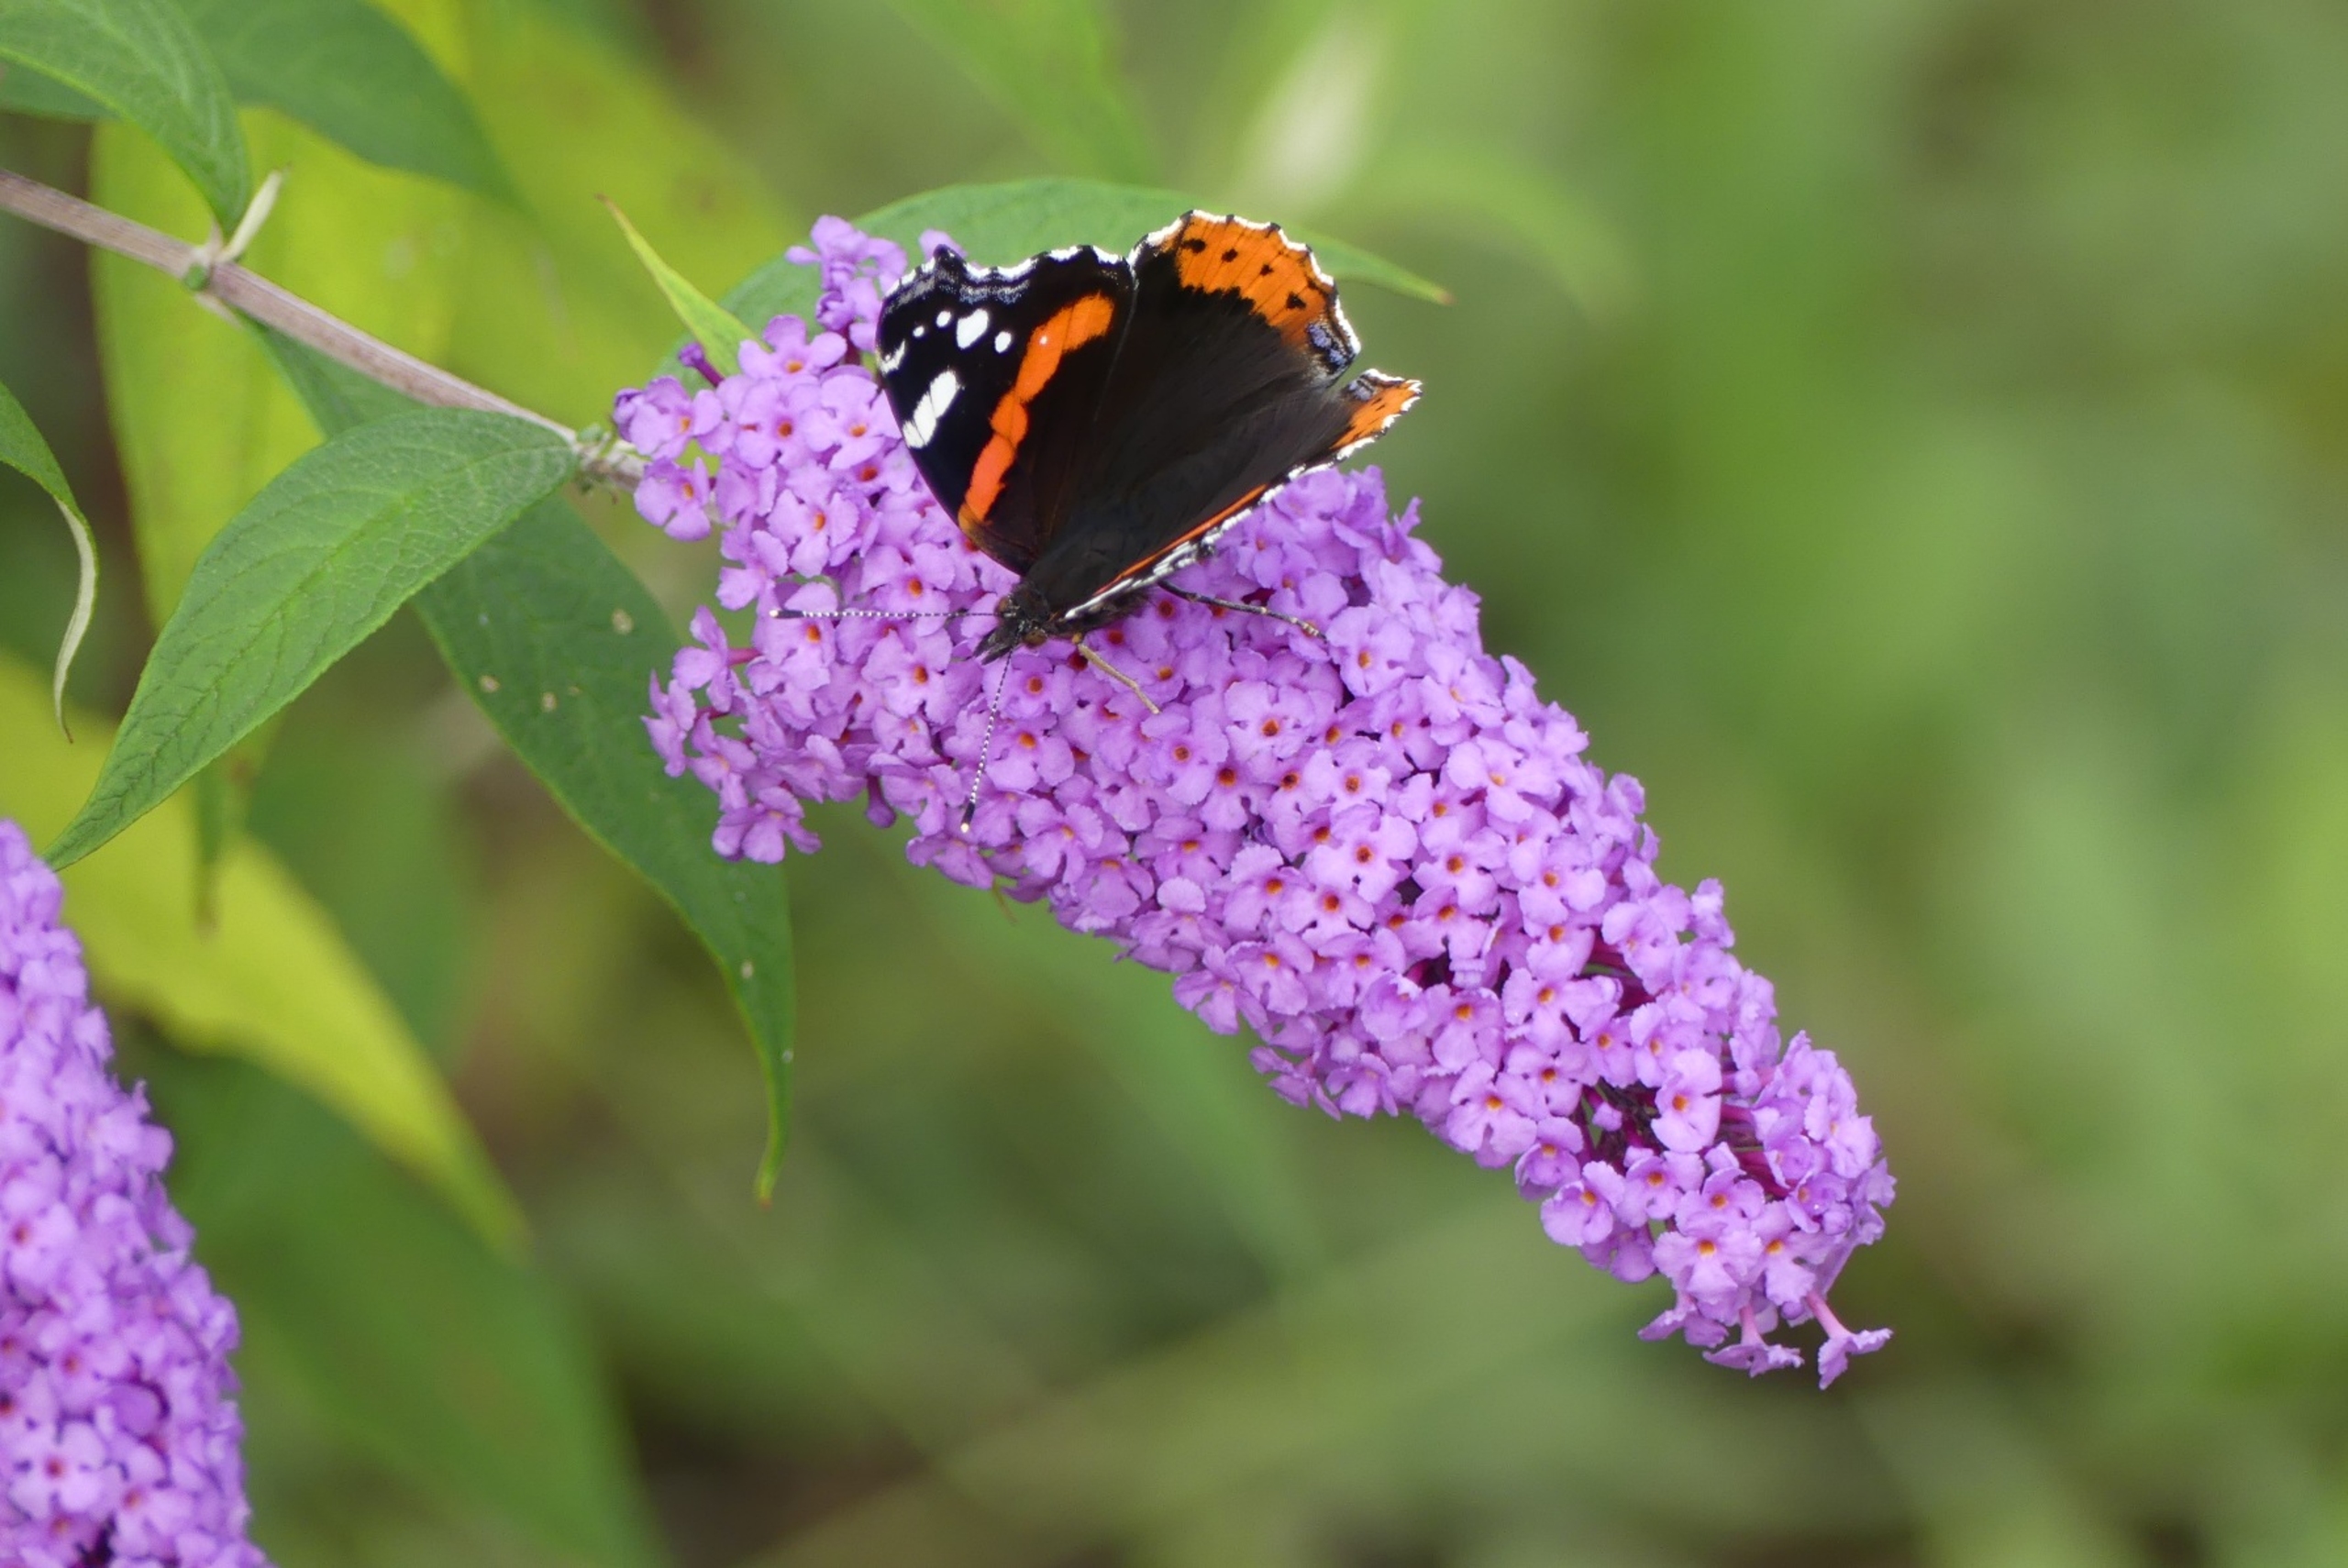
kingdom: Animalia
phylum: Arthropoda
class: Insecta
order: Lepidoptera
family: Nymphalidae
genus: Vanessa
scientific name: Vanessa atalanta
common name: Admiral
